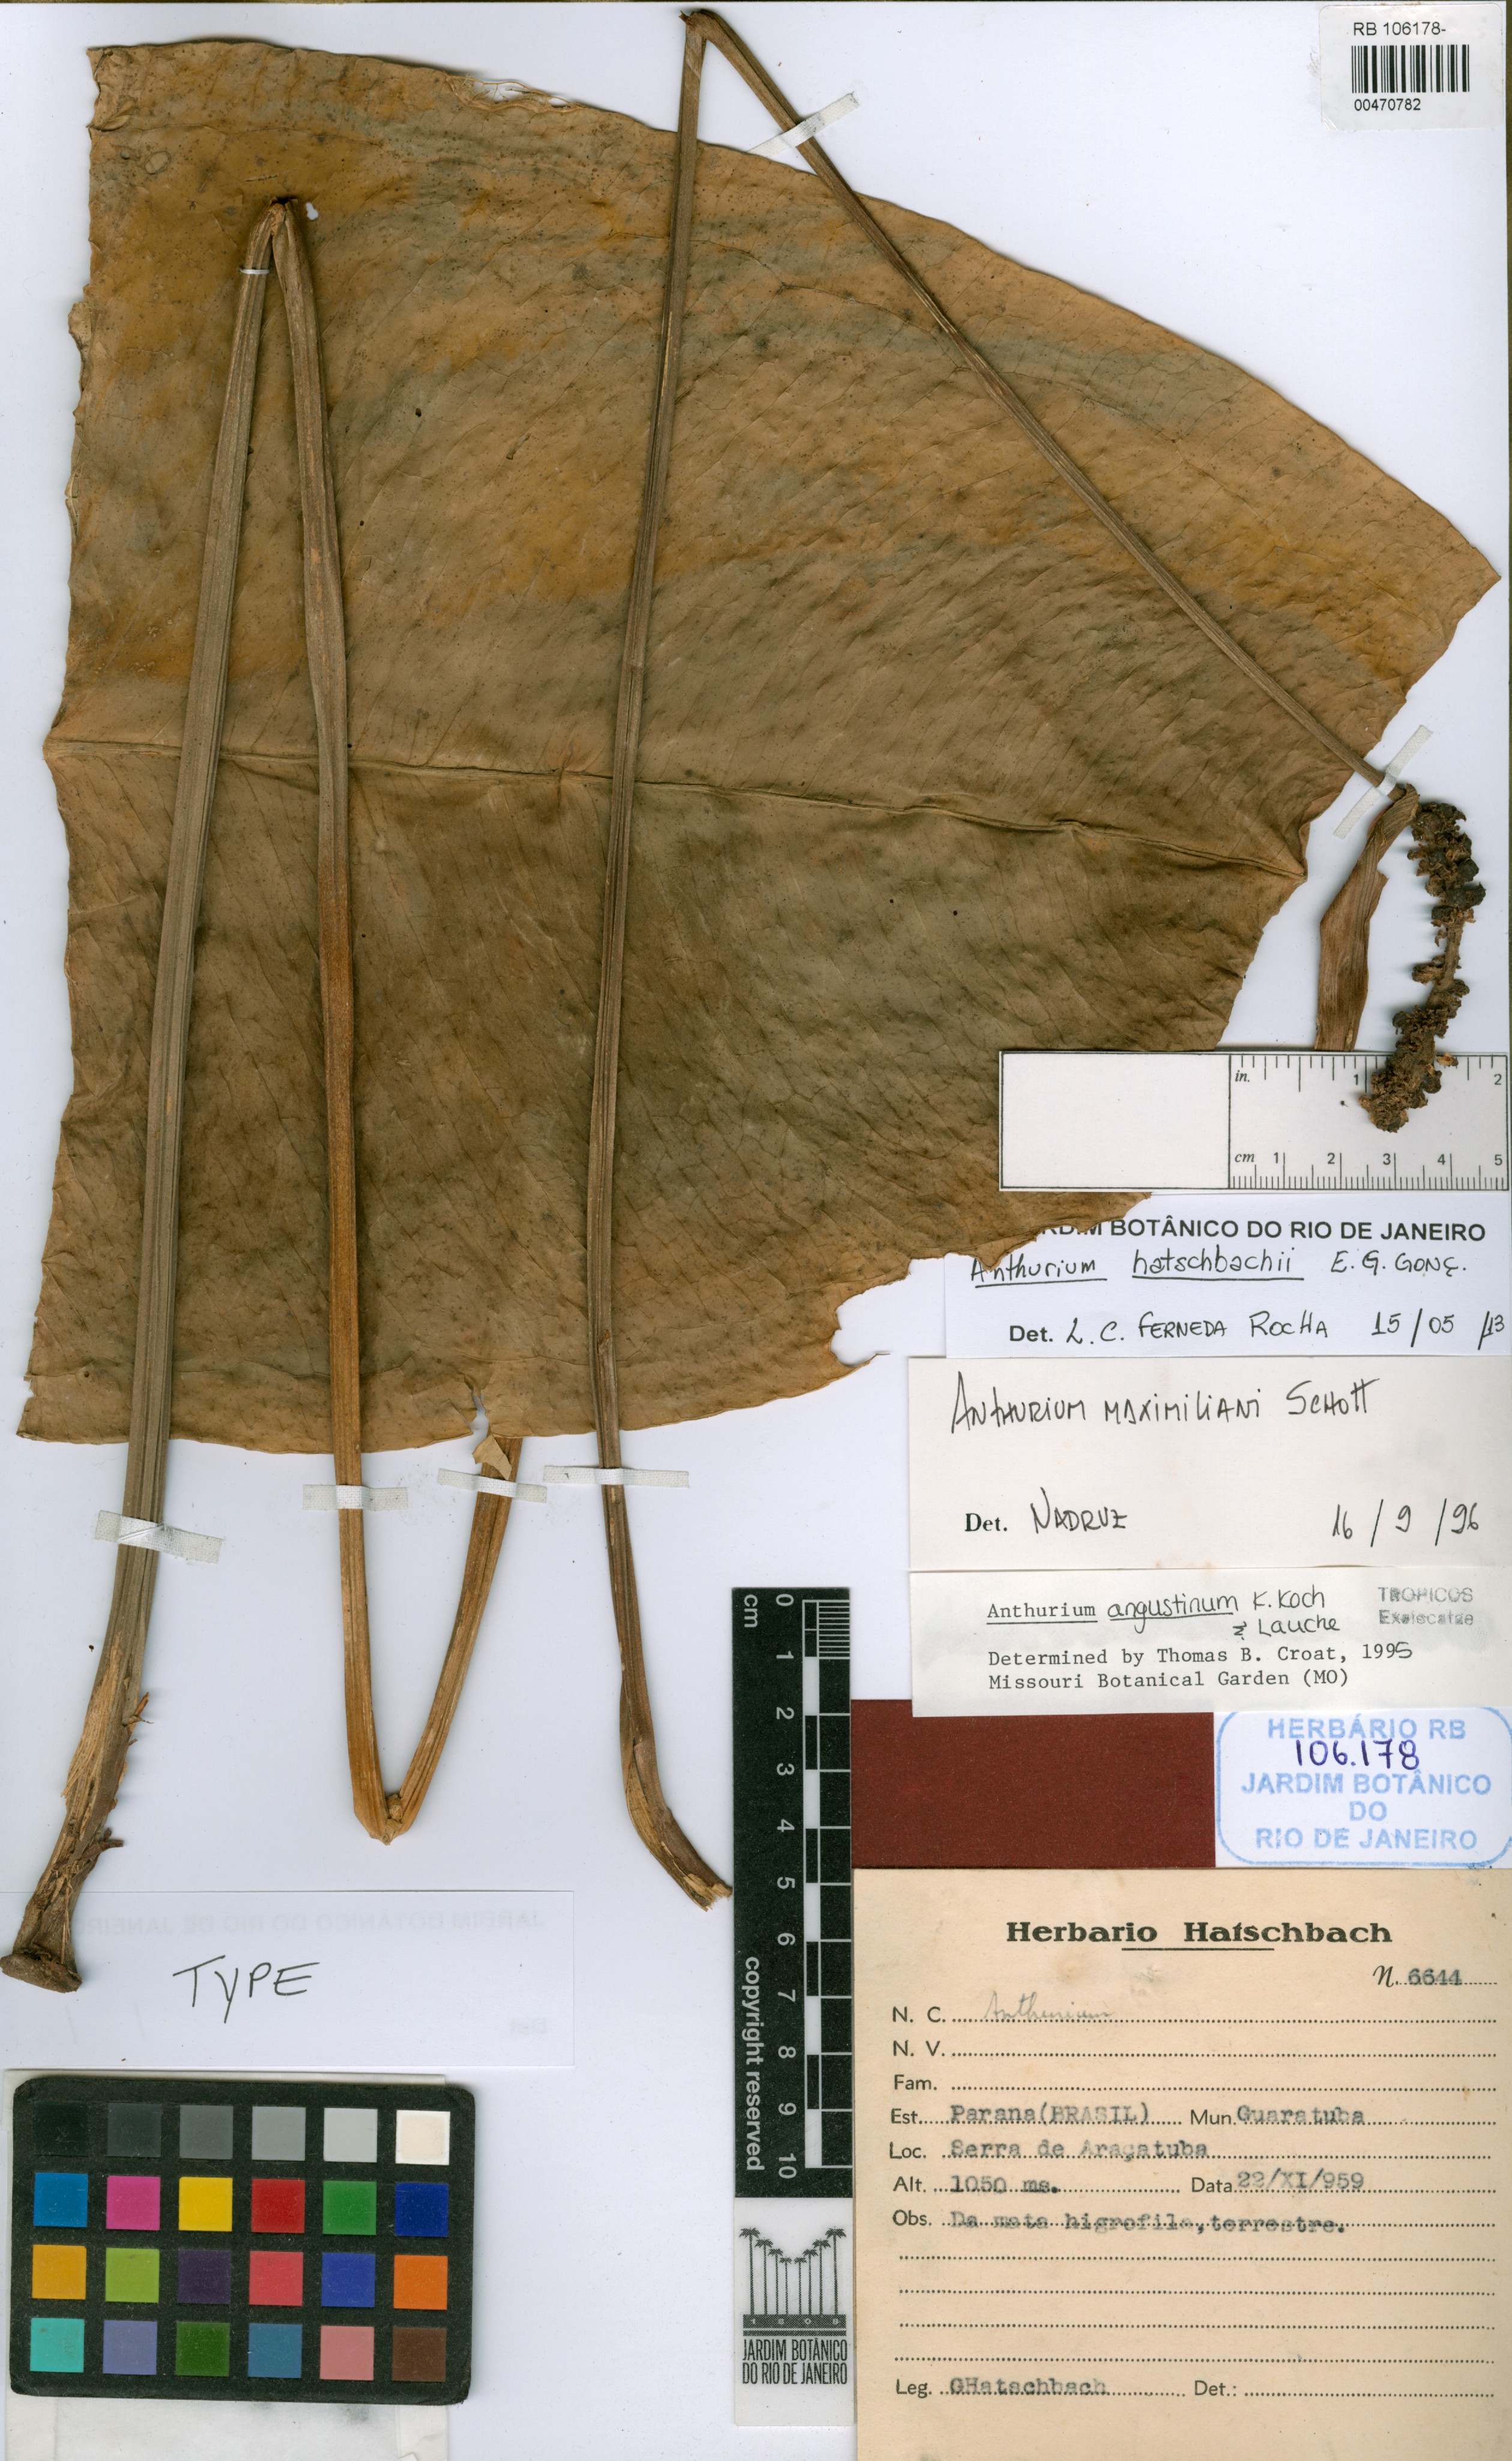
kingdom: Plantae
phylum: Tracheophyta
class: Liliopsida
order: Alismatales
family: Araceae
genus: Anthurium
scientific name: Anthurium hatschbachii
